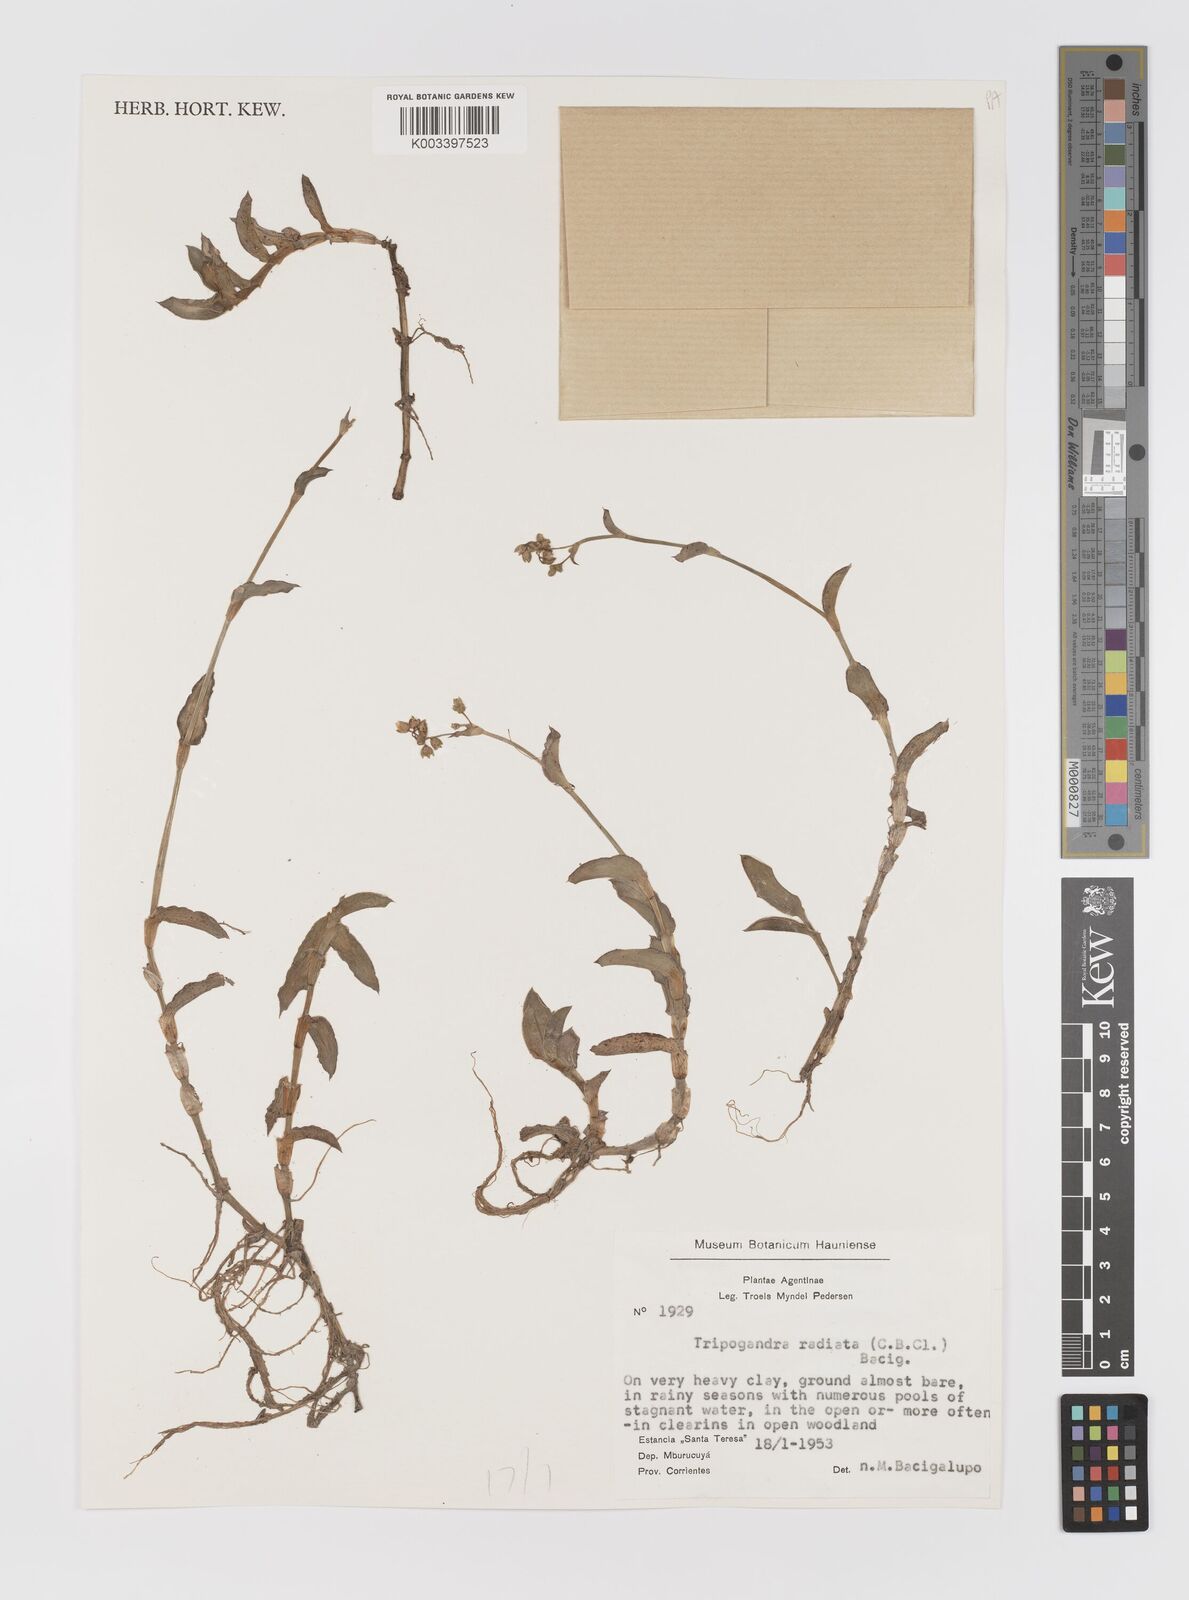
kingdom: Plantae
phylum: Tracheophyta
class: Liliopsida
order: Commelinales
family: Commelinaceae
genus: Callisia
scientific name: Callisia glandulosa
